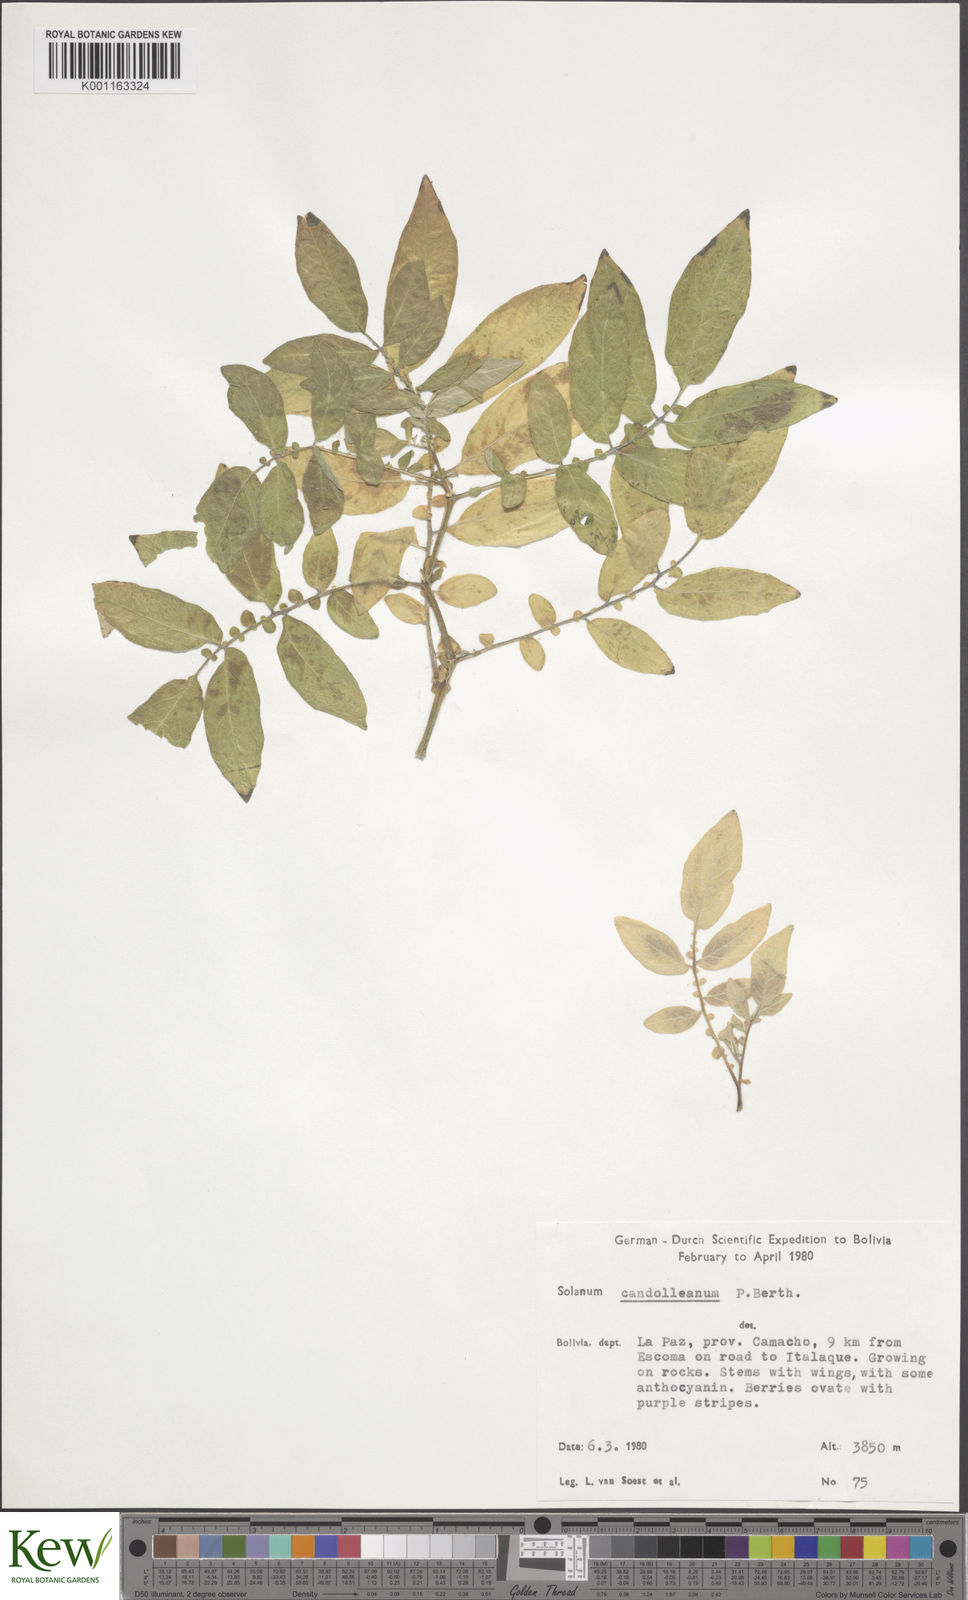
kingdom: Plantae
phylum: Tracheophyta
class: Magnoliopsida
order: Solanales
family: Solanaceae
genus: Solanum
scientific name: Solanum candolleanum
